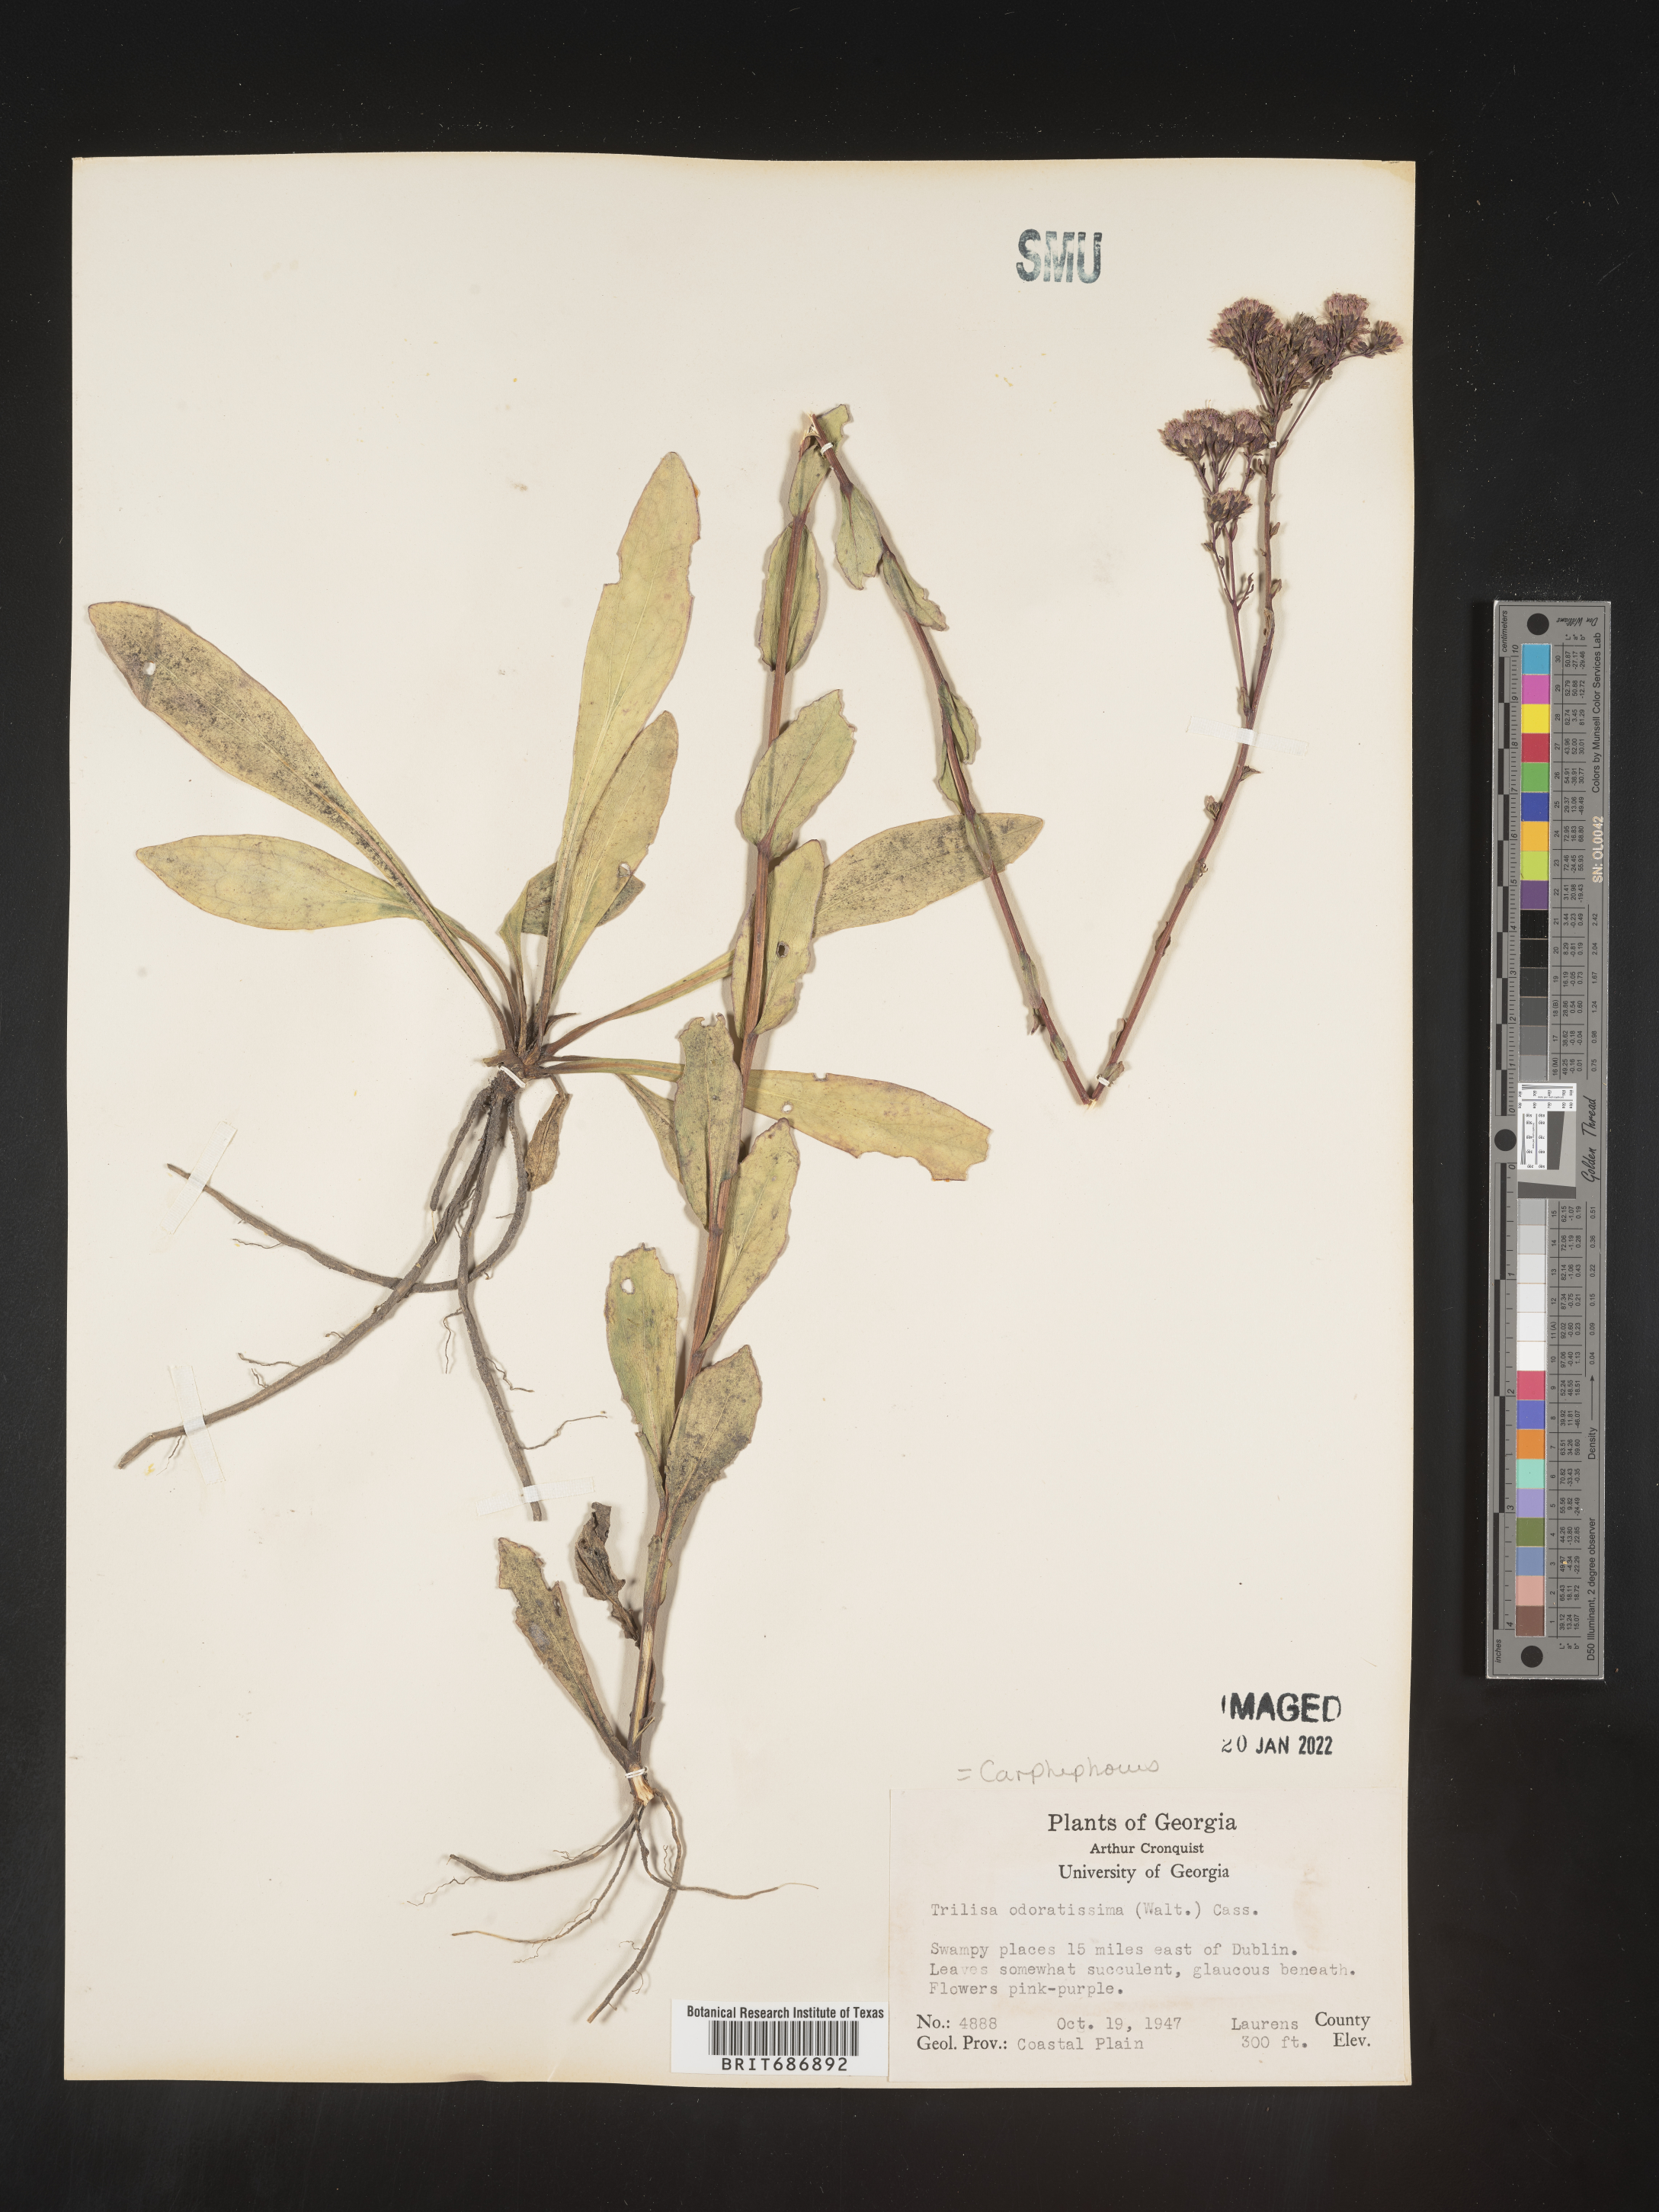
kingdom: Plantae
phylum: Tracheophyta
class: Magnoliopsida
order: Asterales
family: Asteraceae
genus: Carphephorus
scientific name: Carphephorus odoratissimus
